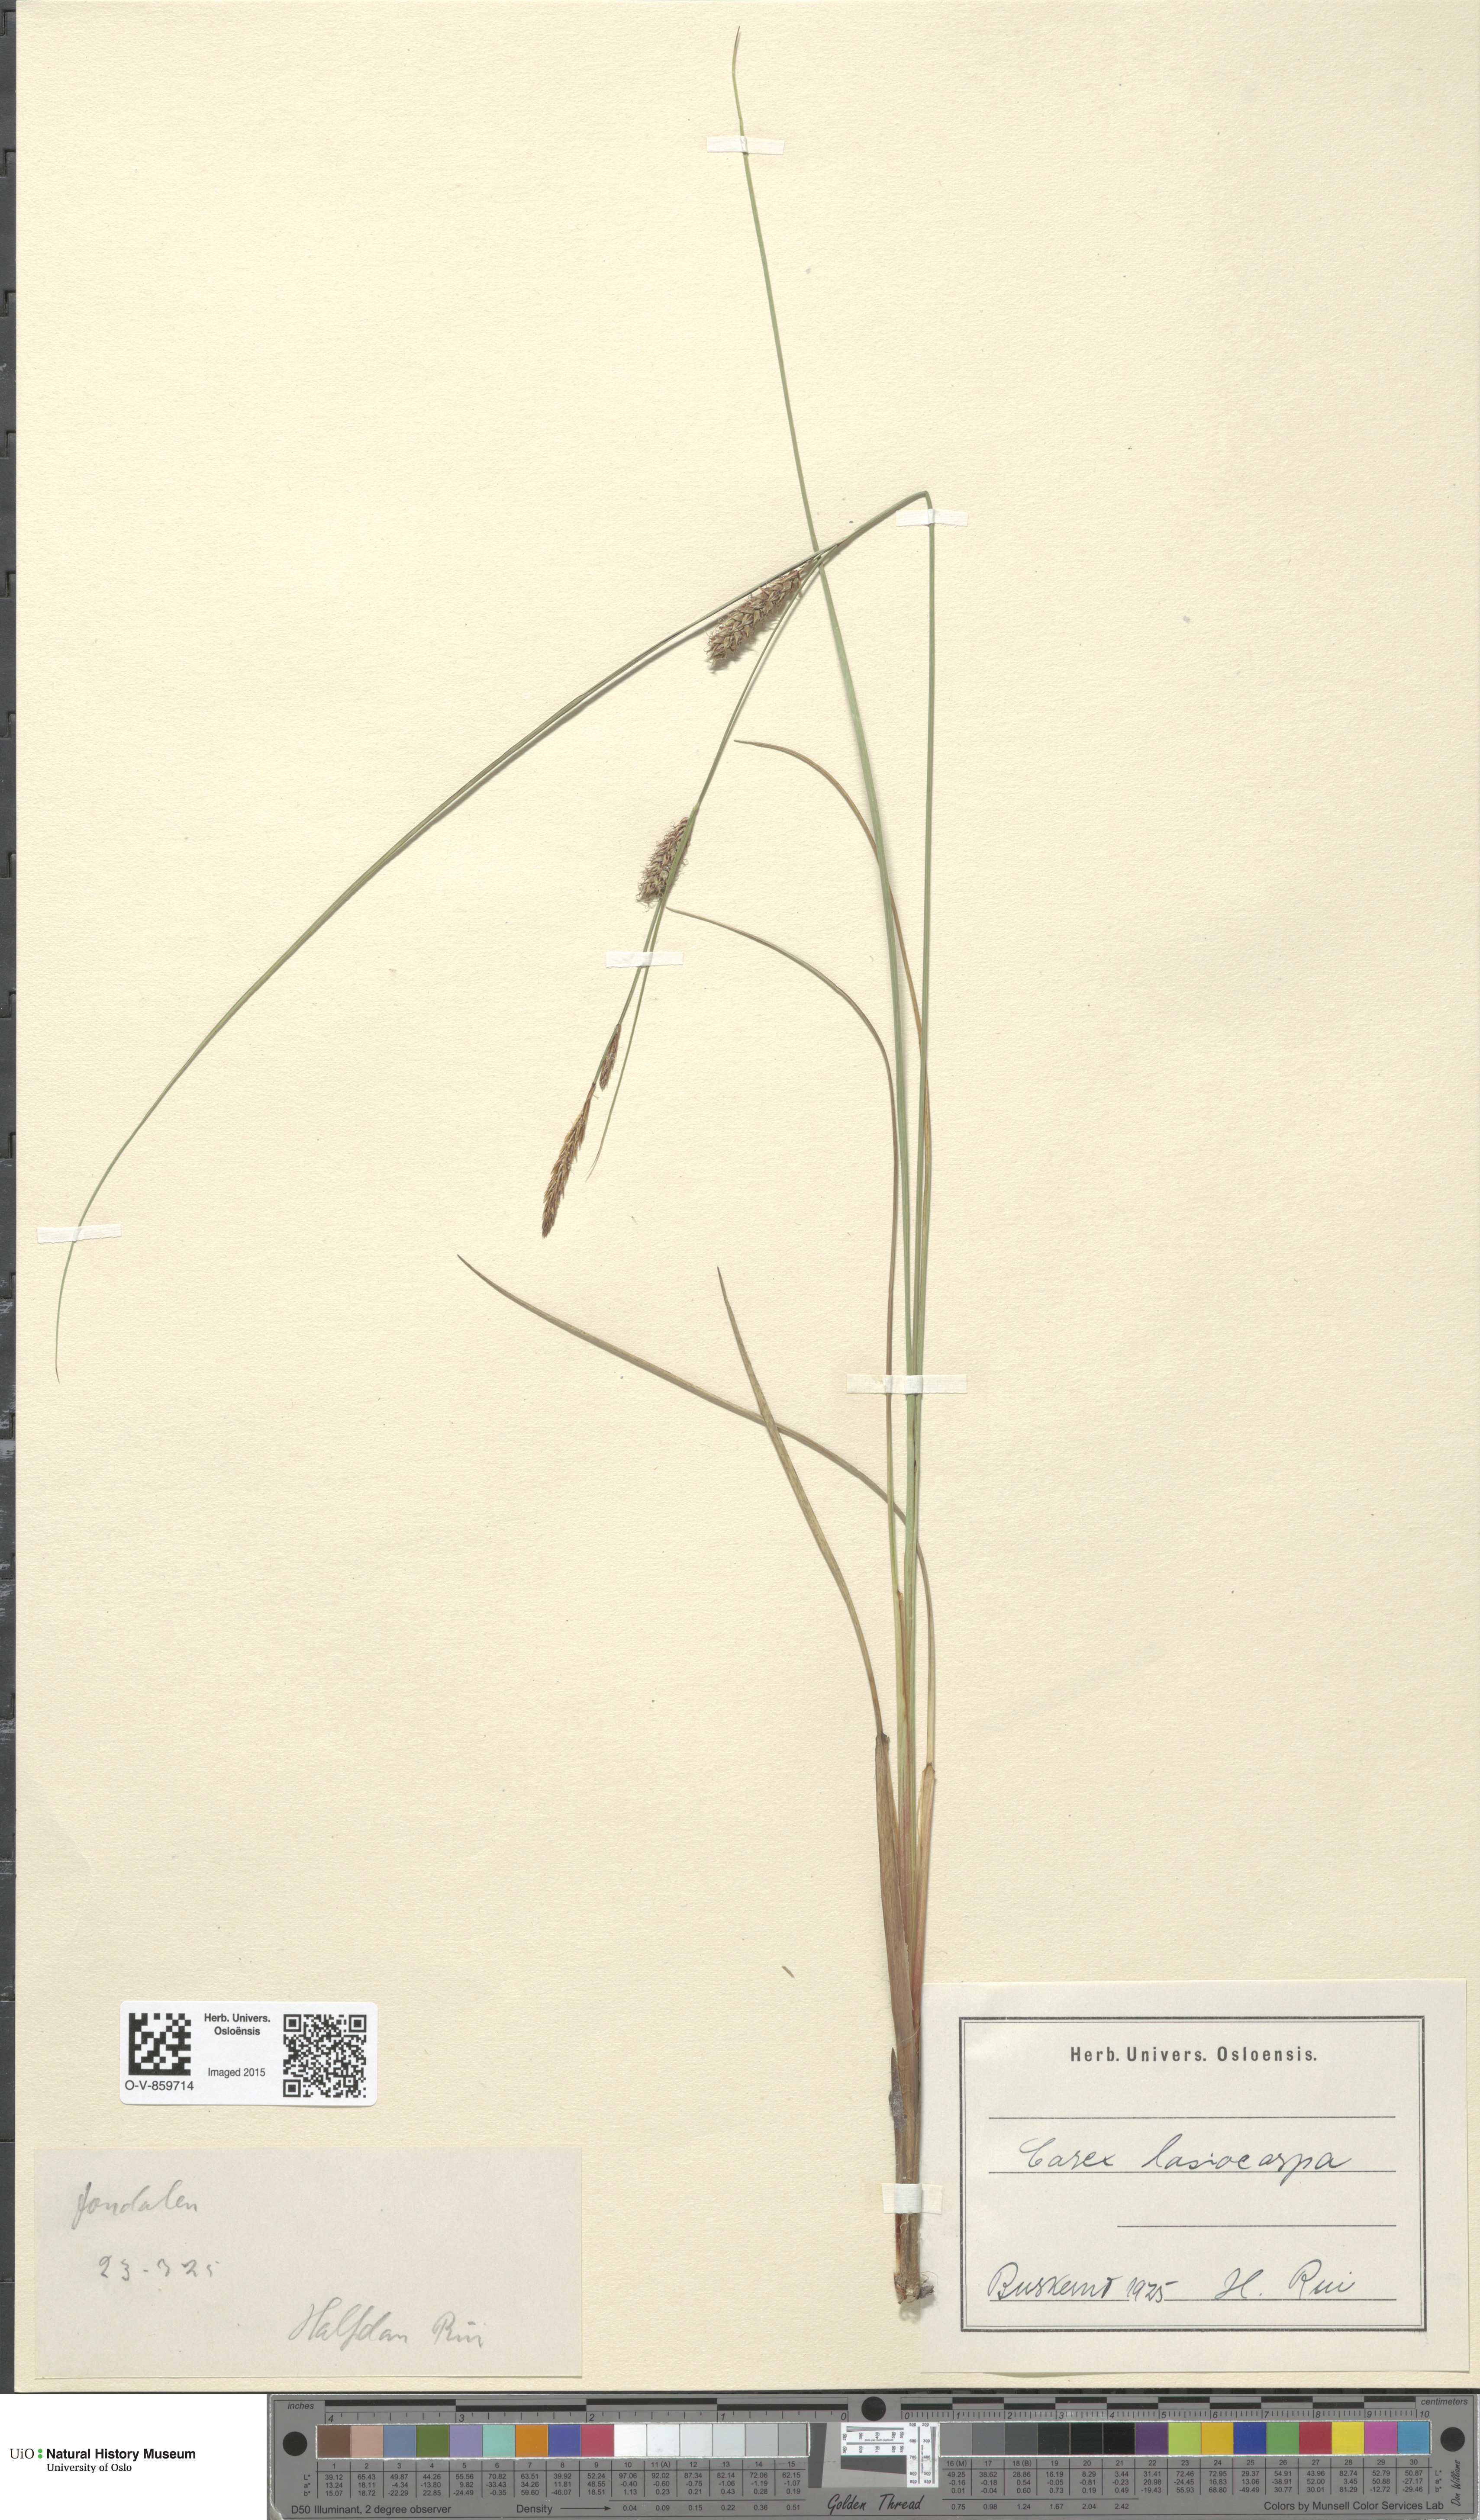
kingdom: Plantae
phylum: Tracheophyta
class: Liliopsida
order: Poales
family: Cyperaceae
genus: Carex
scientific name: Carex lasiocarpa
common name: Slender sedge
